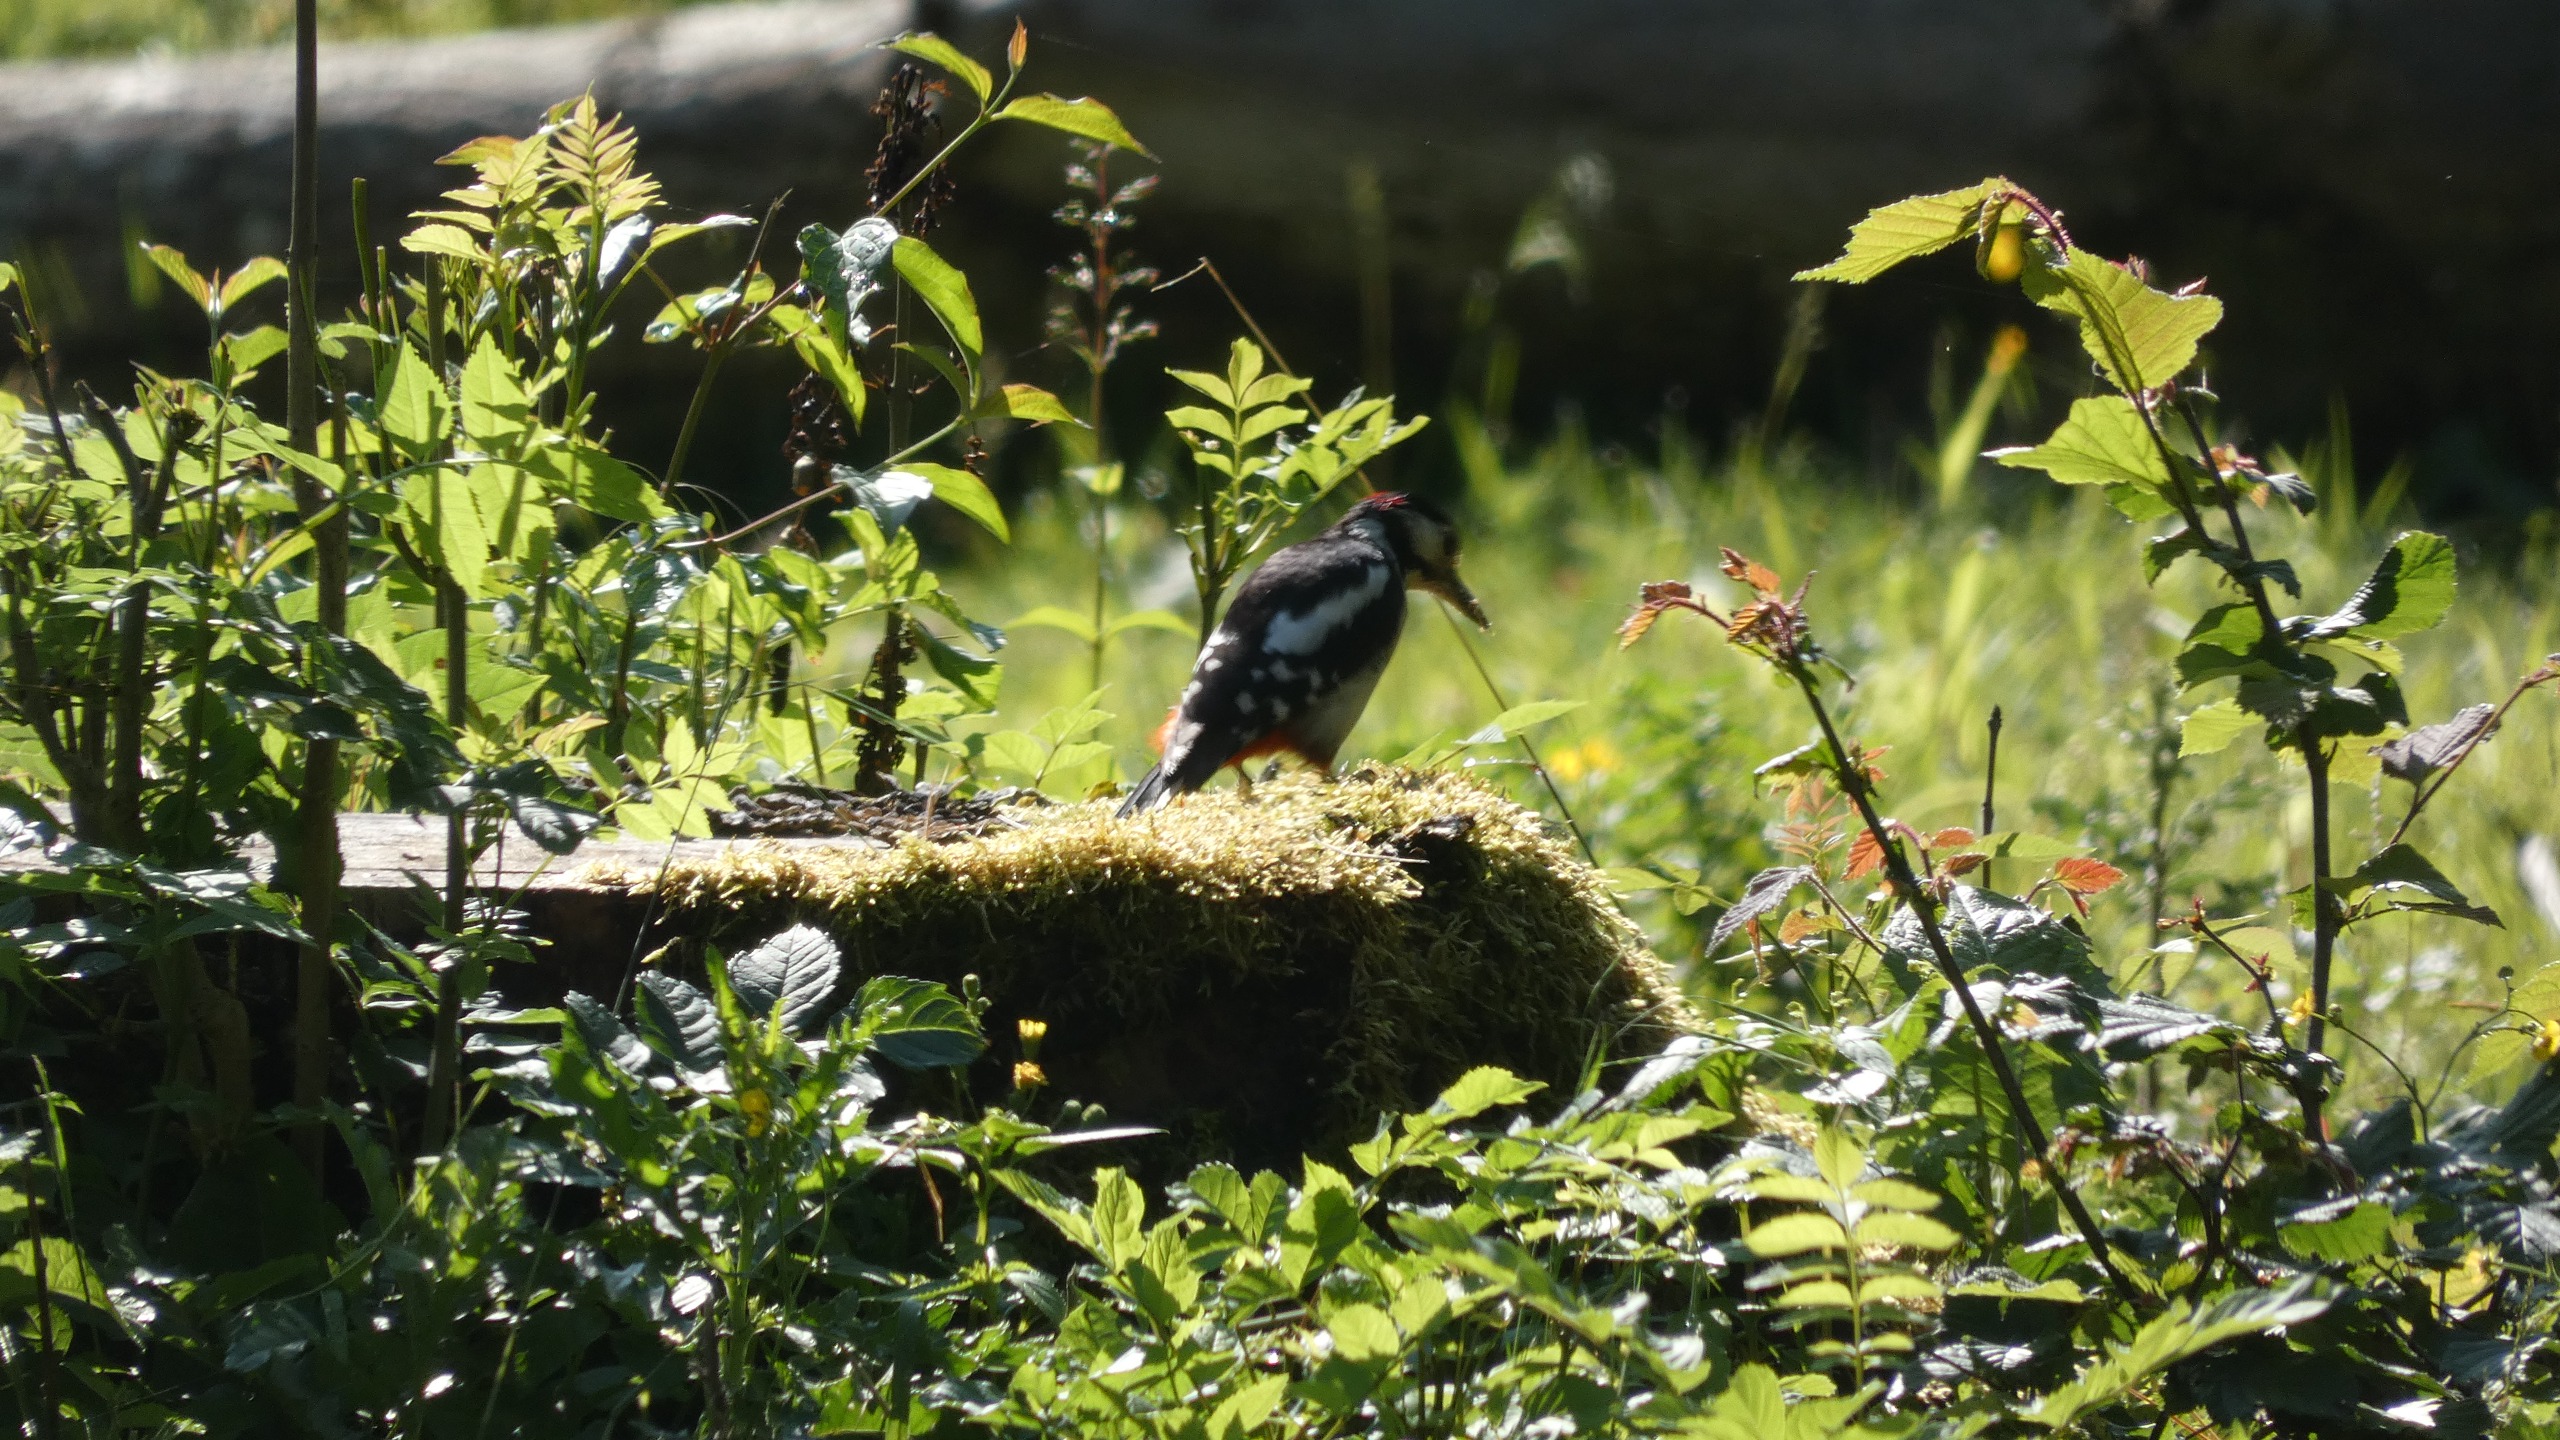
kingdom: Animalia
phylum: Chordata
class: Aves
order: Piciformes
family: Picidae
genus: Dendrocopos
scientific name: Dendrocopos major
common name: Stor flagspætte
